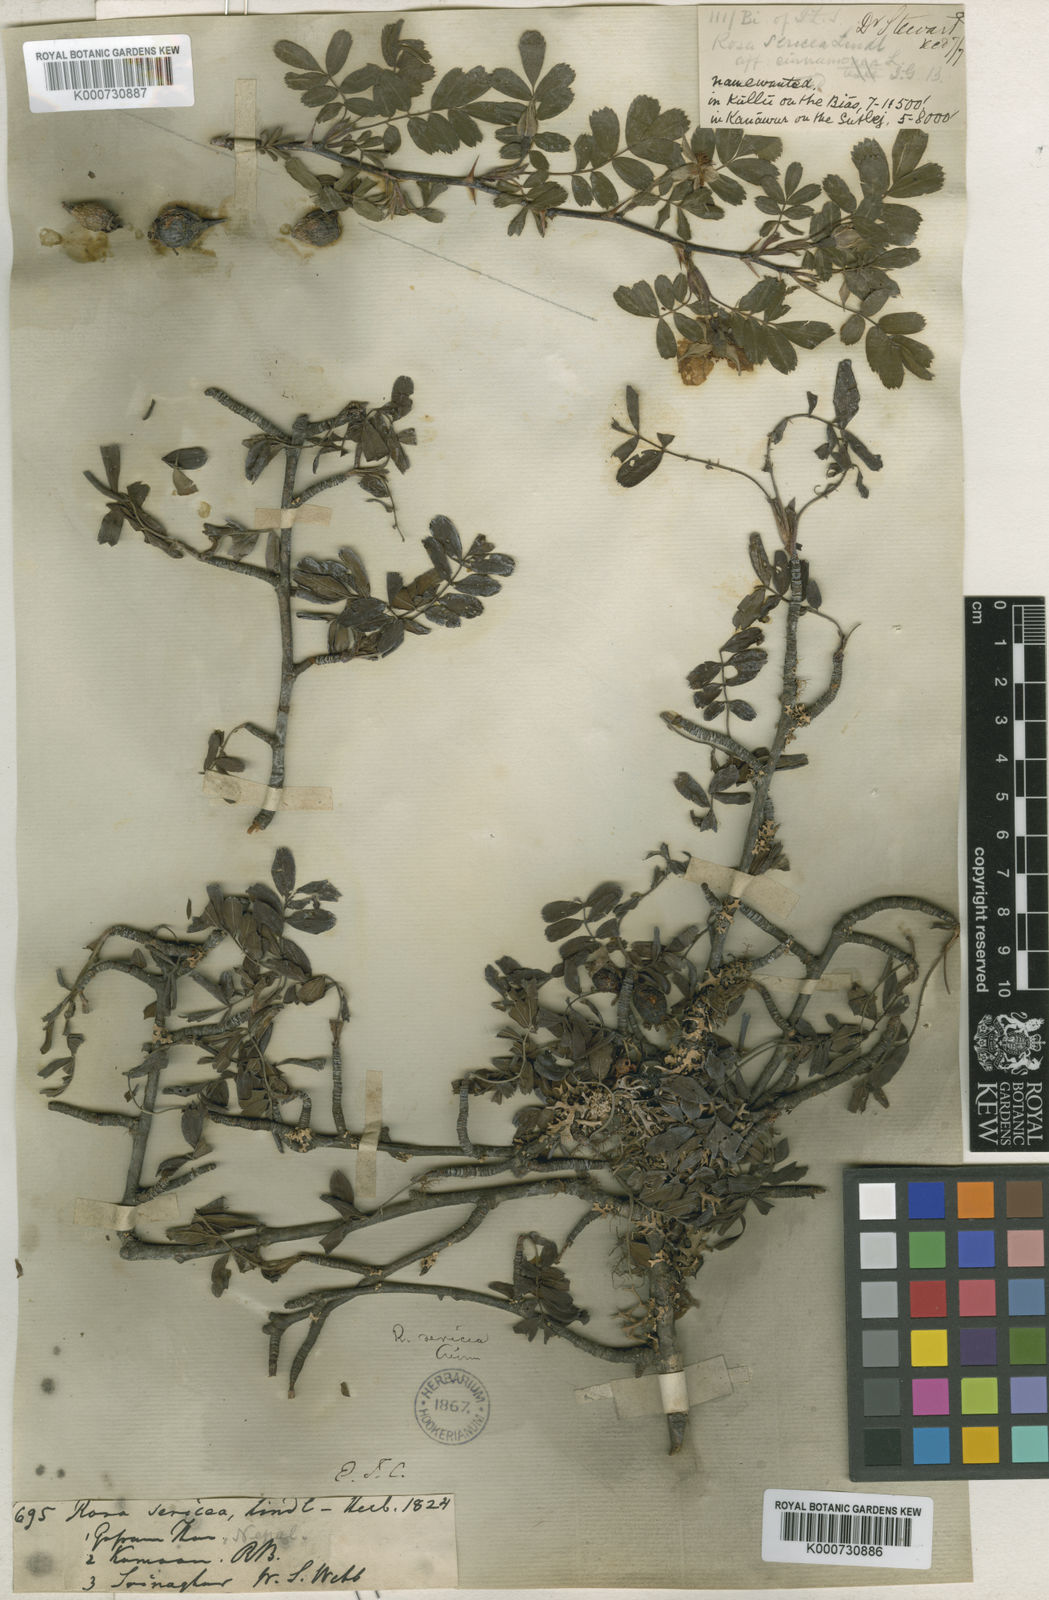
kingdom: Plantae
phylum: Tracheophyta
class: Magnoliopsida
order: Rosales
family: Rosaceae
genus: Rosa
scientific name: Rosa sericea
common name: Silky rose
